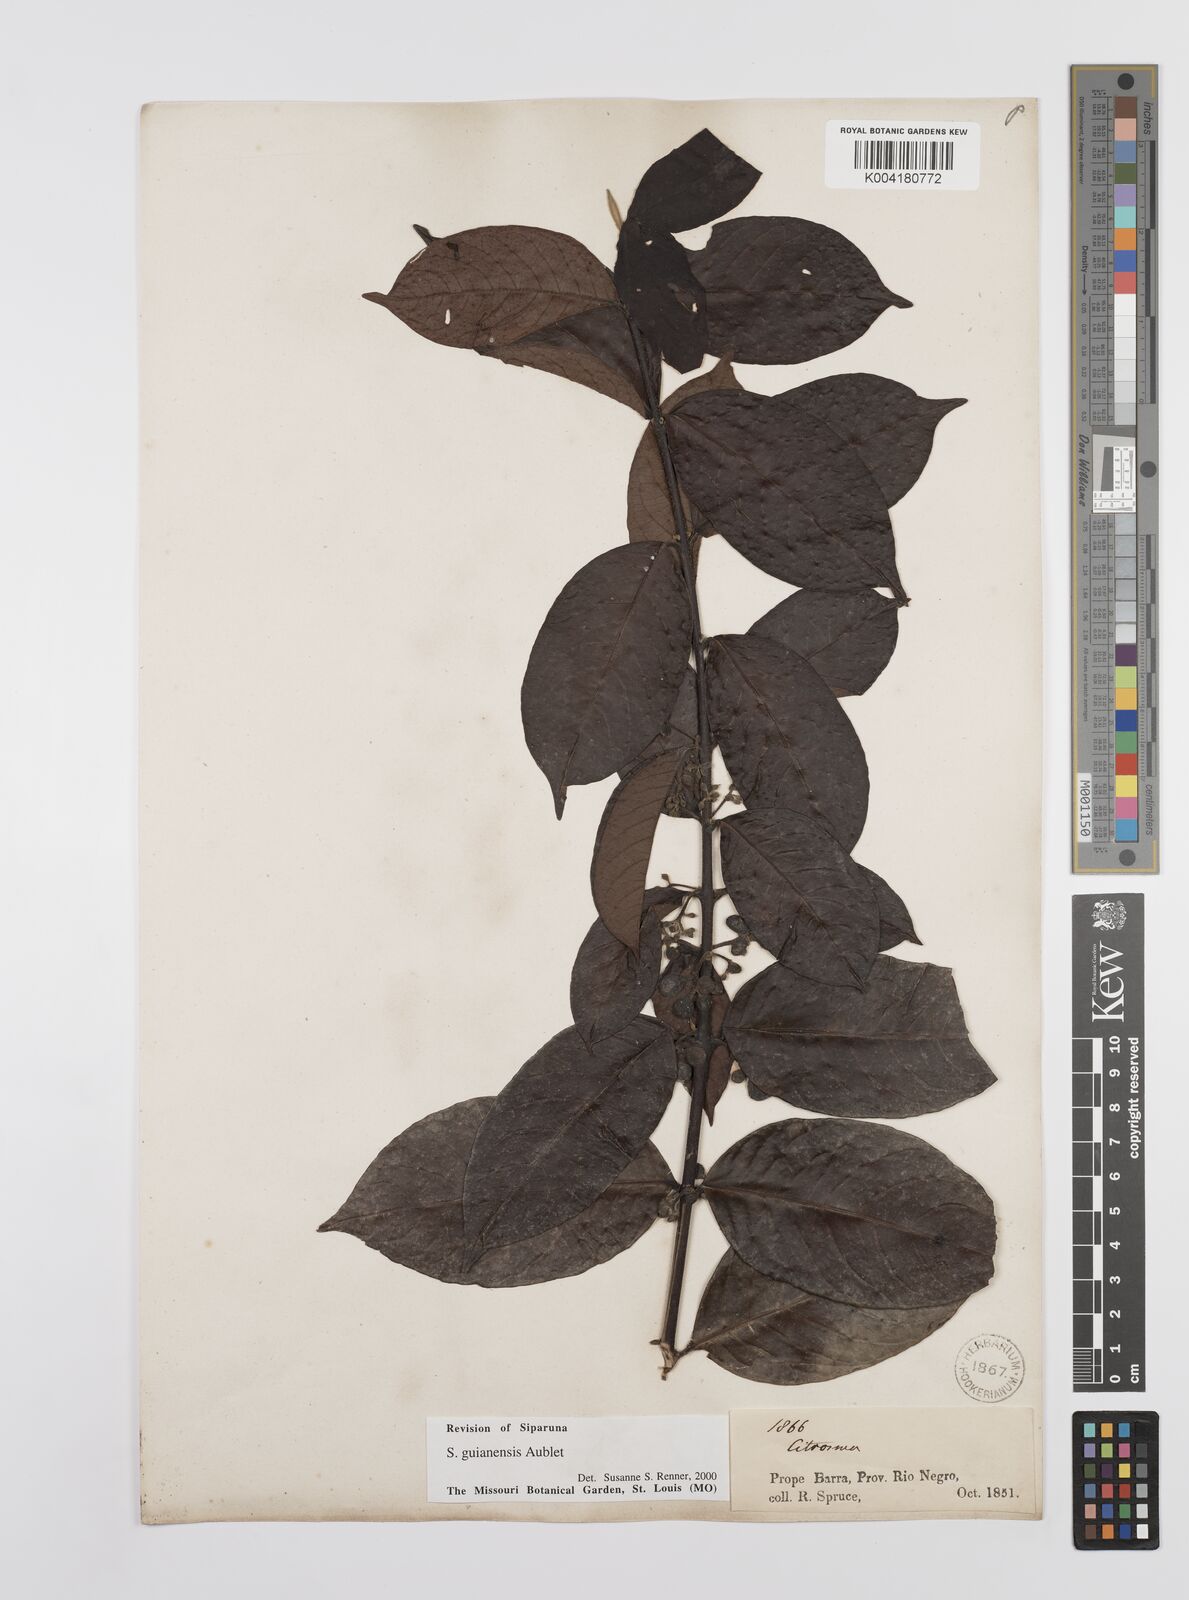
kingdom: Plantae
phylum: Tracheophyta
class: Magnoliopsida
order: Laurales
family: Siparunaceae
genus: Siparuna
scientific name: Siparuna guianensis
